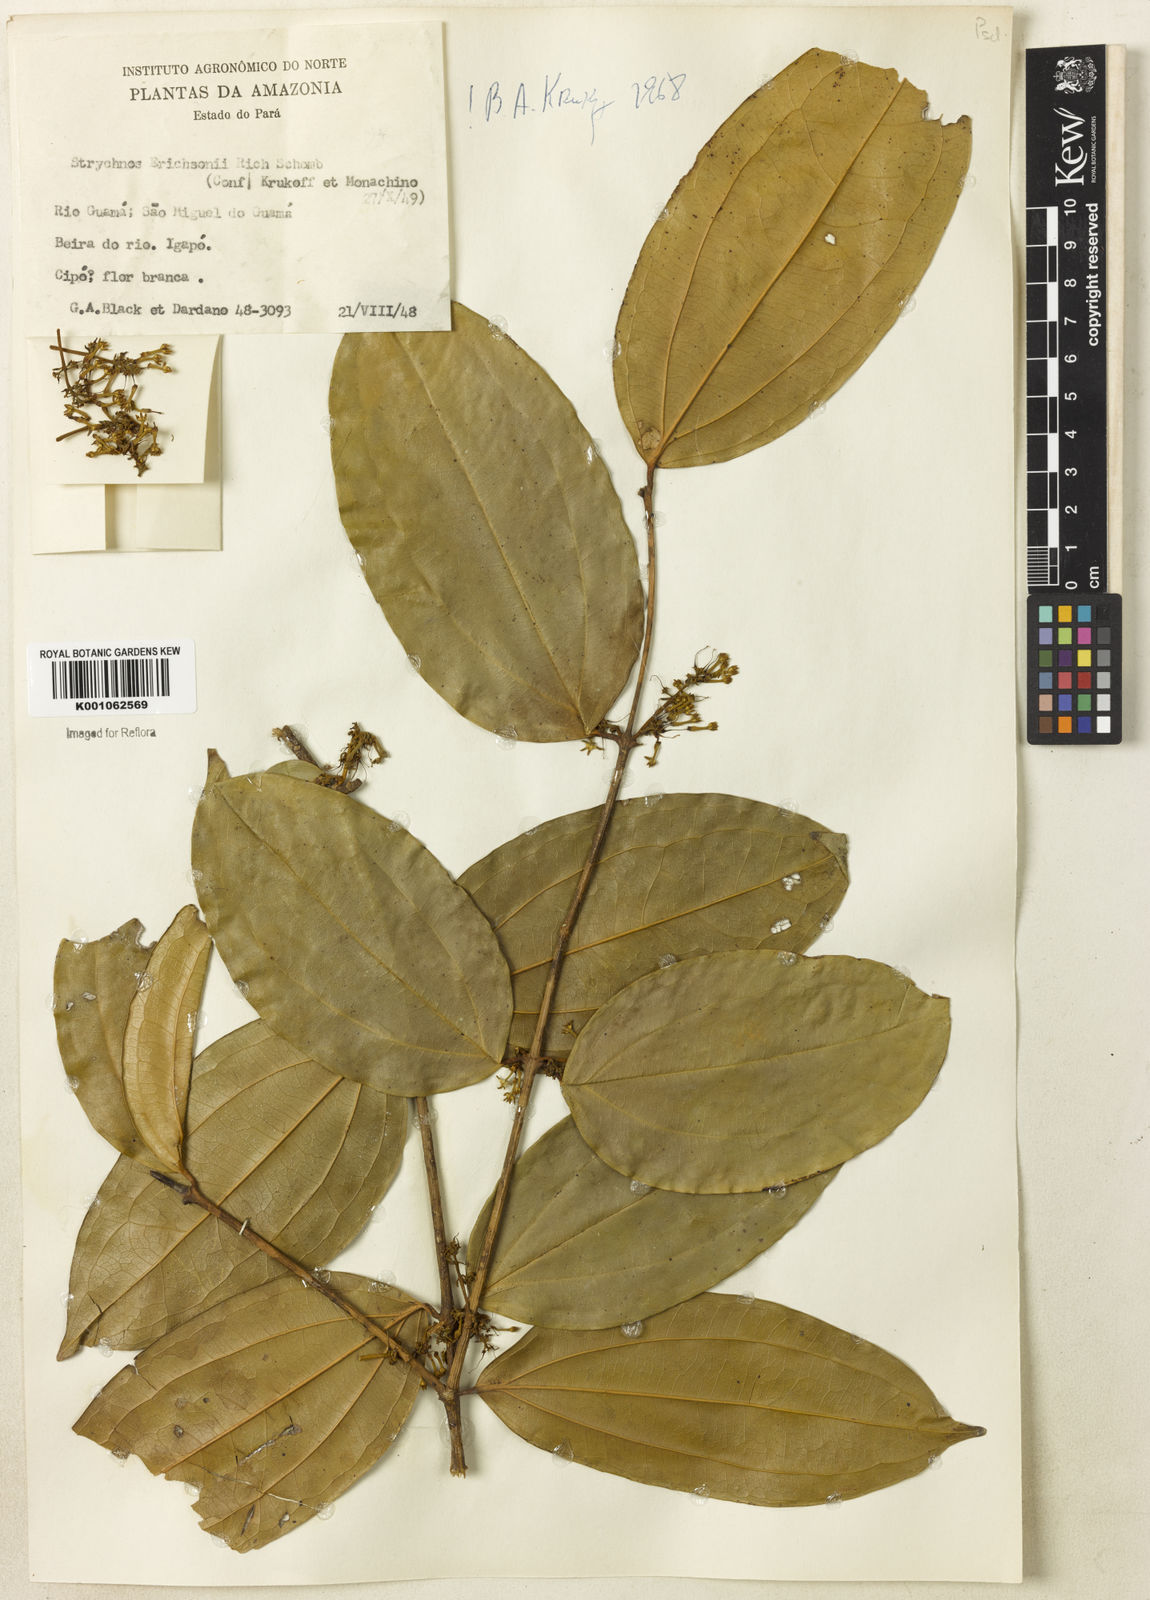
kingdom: Plantae
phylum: Tracheophyta
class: Magnoliopsida
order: Gentianales
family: Loganiaceae
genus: Strychnos
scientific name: Strychnos erichsonii
